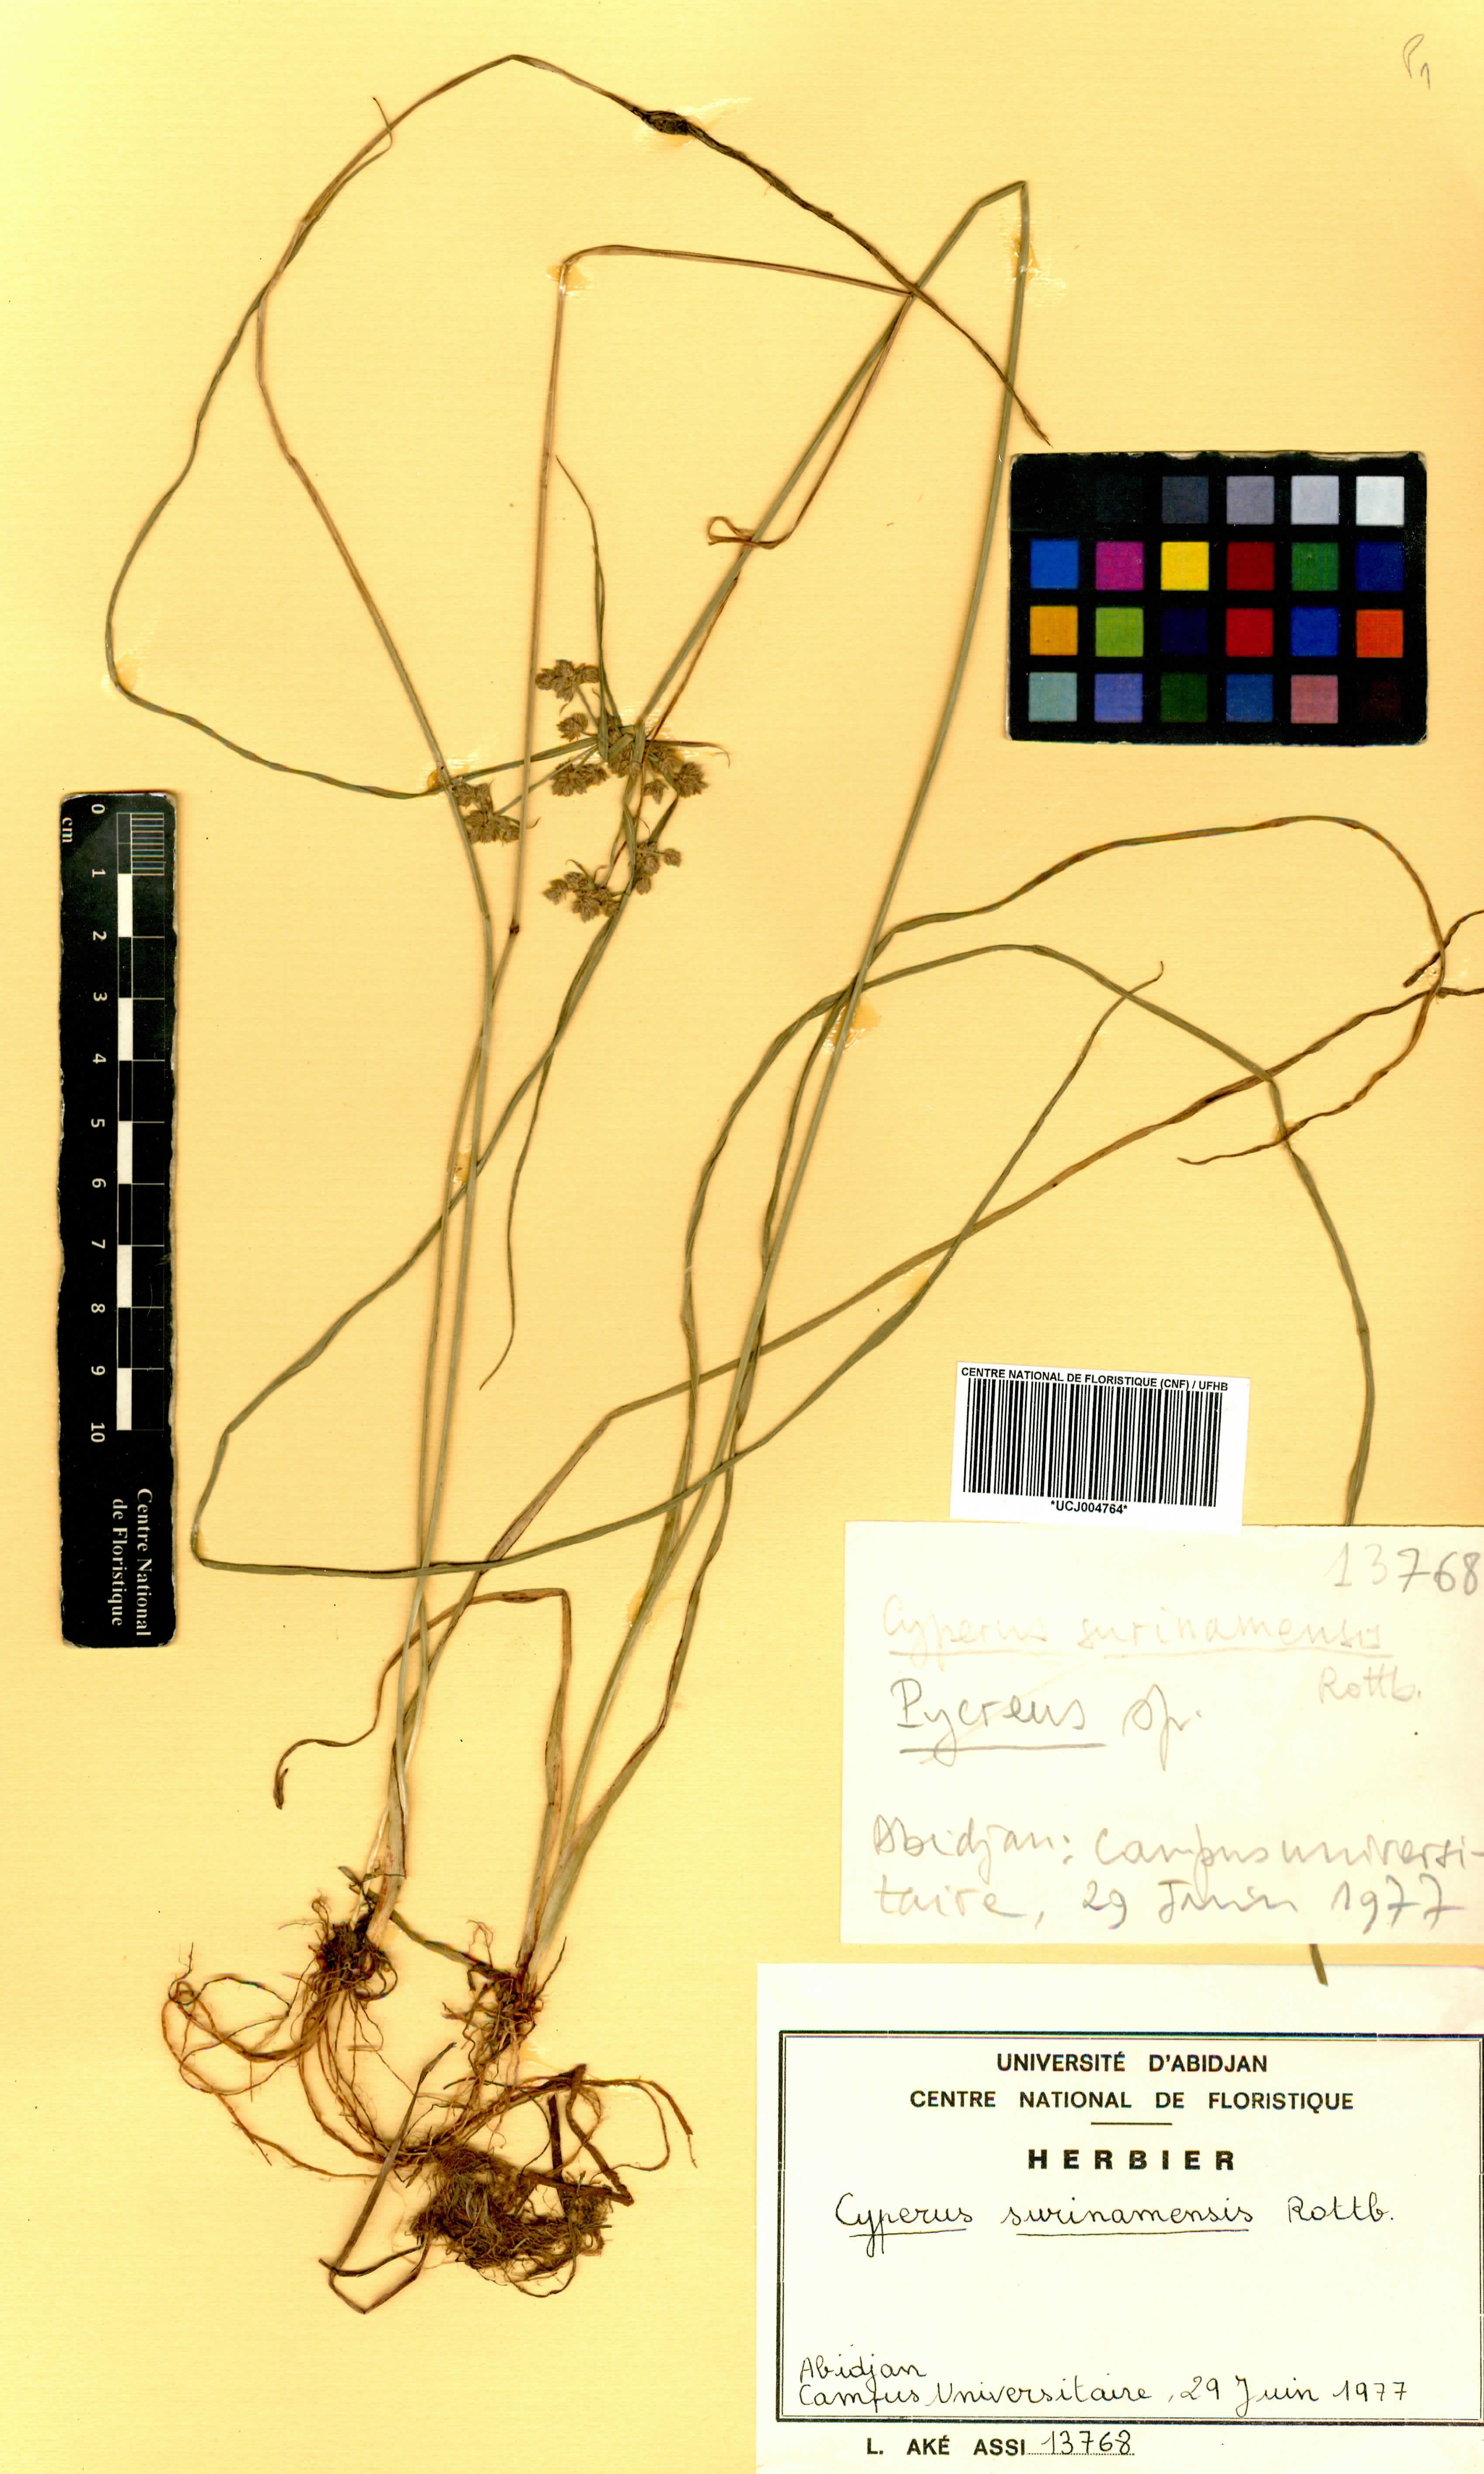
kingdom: Plantae
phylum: Tracheophyta
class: Liliopsida
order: Poales
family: Cyperaceae
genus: Cyperus
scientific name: Cyperus surinamensis
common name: Tropical flat sedge
